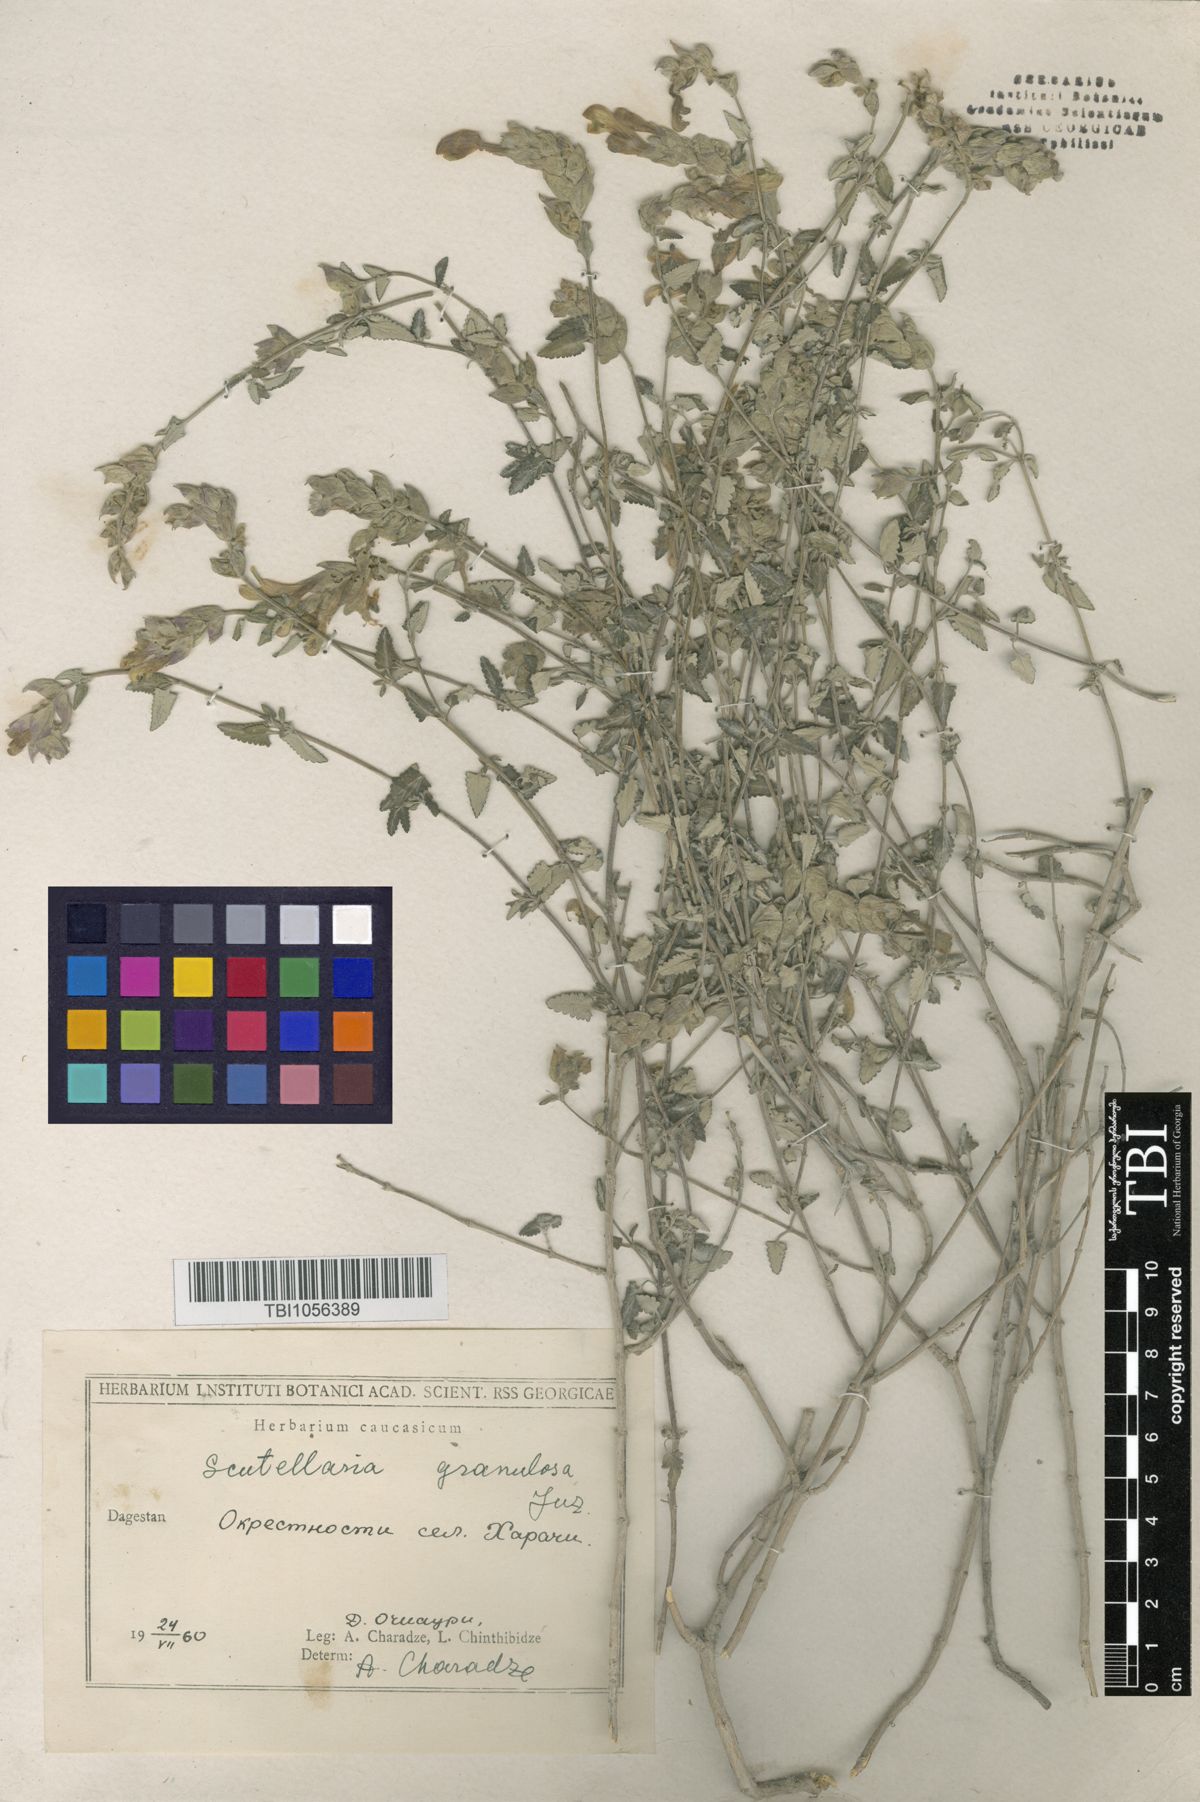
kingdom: Plantae
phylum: Tracheophyta
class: Magnoliopsida
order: Lamiales
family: Lamiaceae
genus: Scutellaria
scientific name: Scutellaria granulosa
